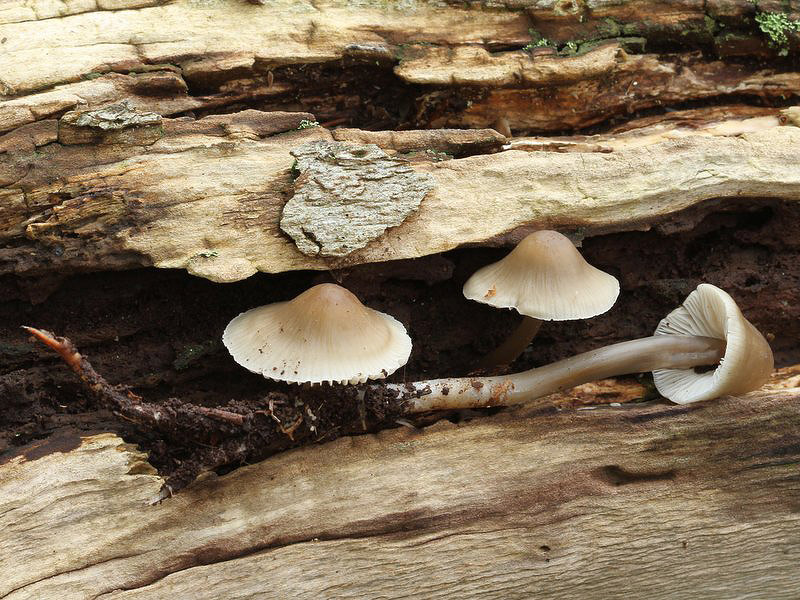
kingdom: Fungi
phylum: Basidiomycota
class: Agaricomycetes
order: Agaricales
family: Mycenaceae
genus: Mycena
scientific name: Mycena galericulata
